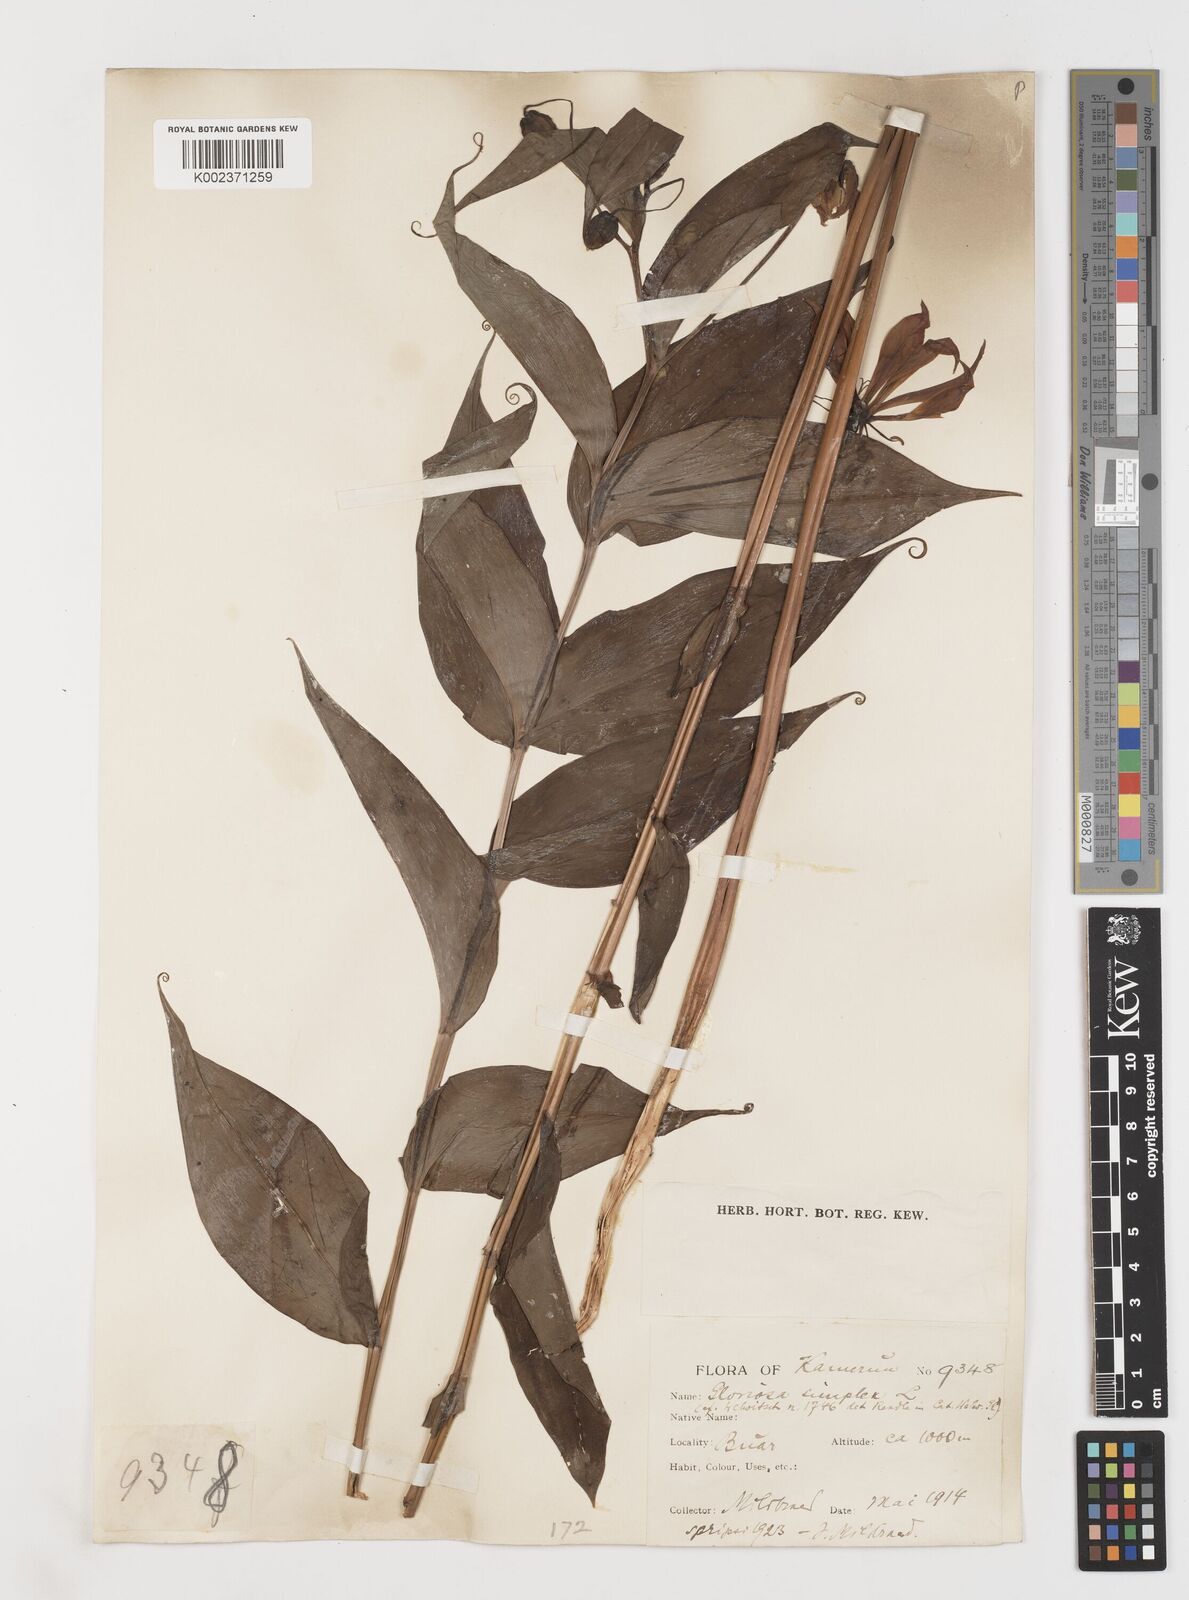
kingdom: Plantae
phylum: Tracheophyta
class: Liliopsida
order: Liliales
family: Colchicaceae
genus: Gloriosa
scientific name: Gloriosa simplex
